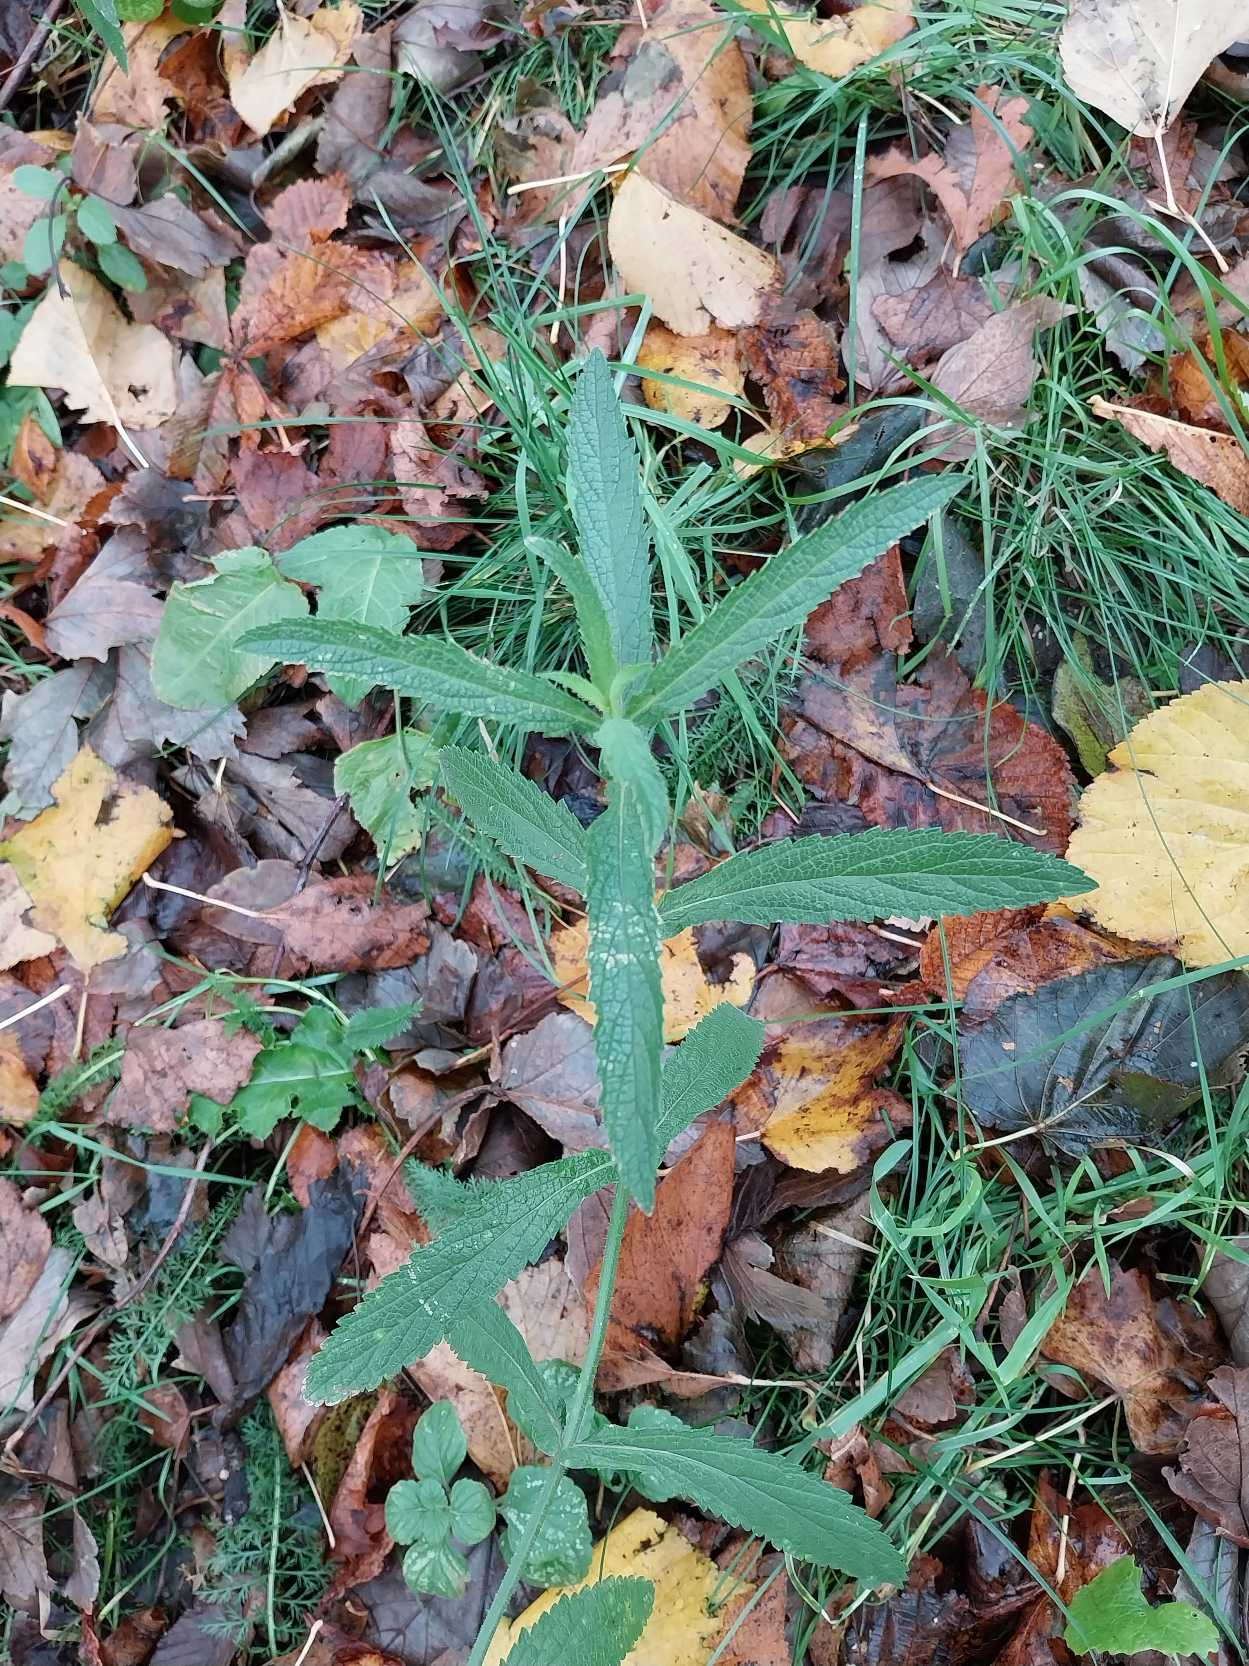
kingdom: Plantae
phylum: Tracheophyta
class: Magnoliopsida
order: Lamiales
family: Verbenaceae
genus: Verbena
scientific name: Verbena bonariensis
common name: Kæmpe-jernurt
